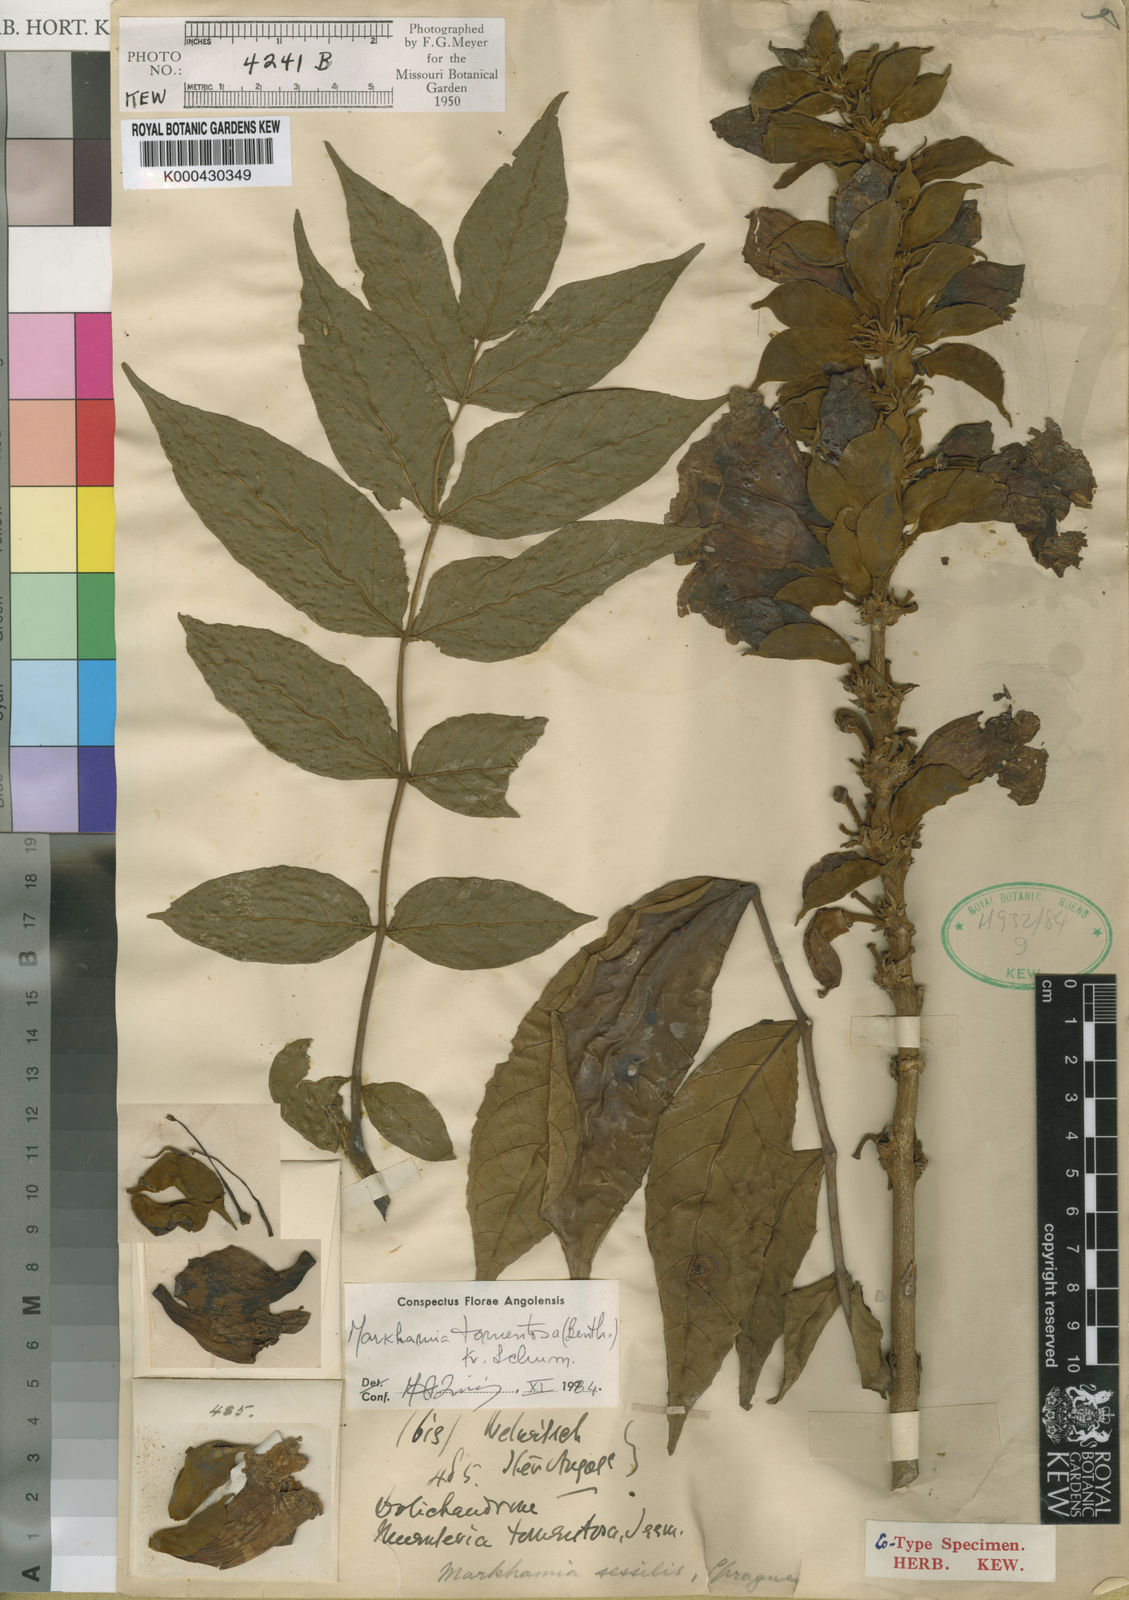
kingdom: Plantae
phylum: Tracheophyta
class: Magnoliopsida
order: Lamiales
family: Bignoniaceae
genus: Markhamia
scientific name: Markhamia tomentosa
